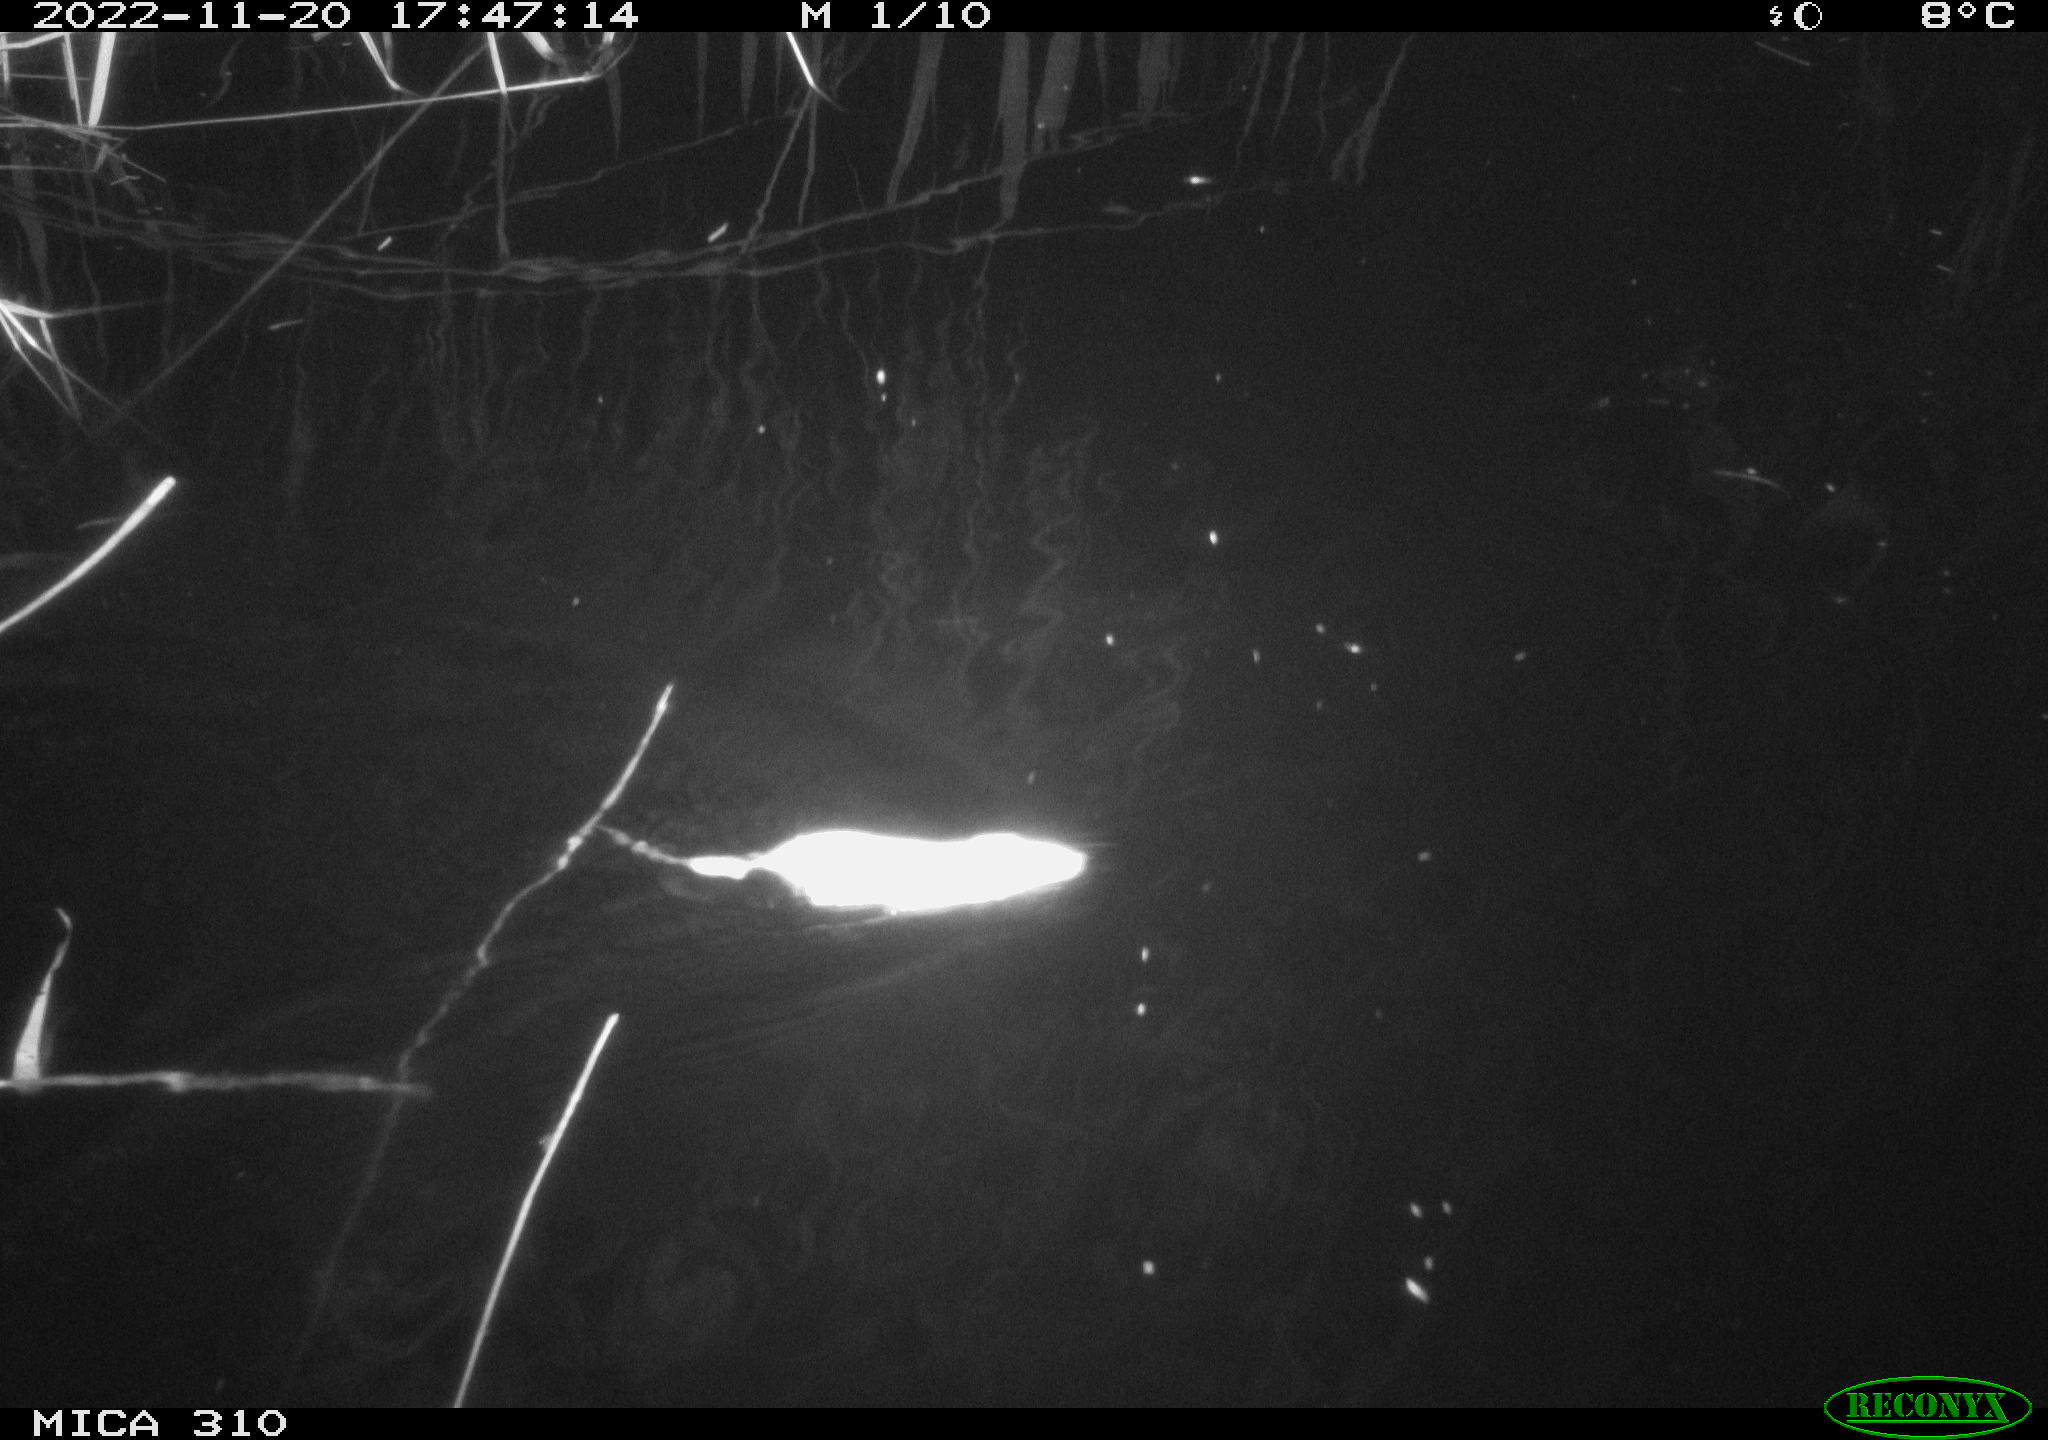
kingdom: Animalia
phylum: Chordata
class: Mammalia
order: Rodentia
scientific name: Rodentia
